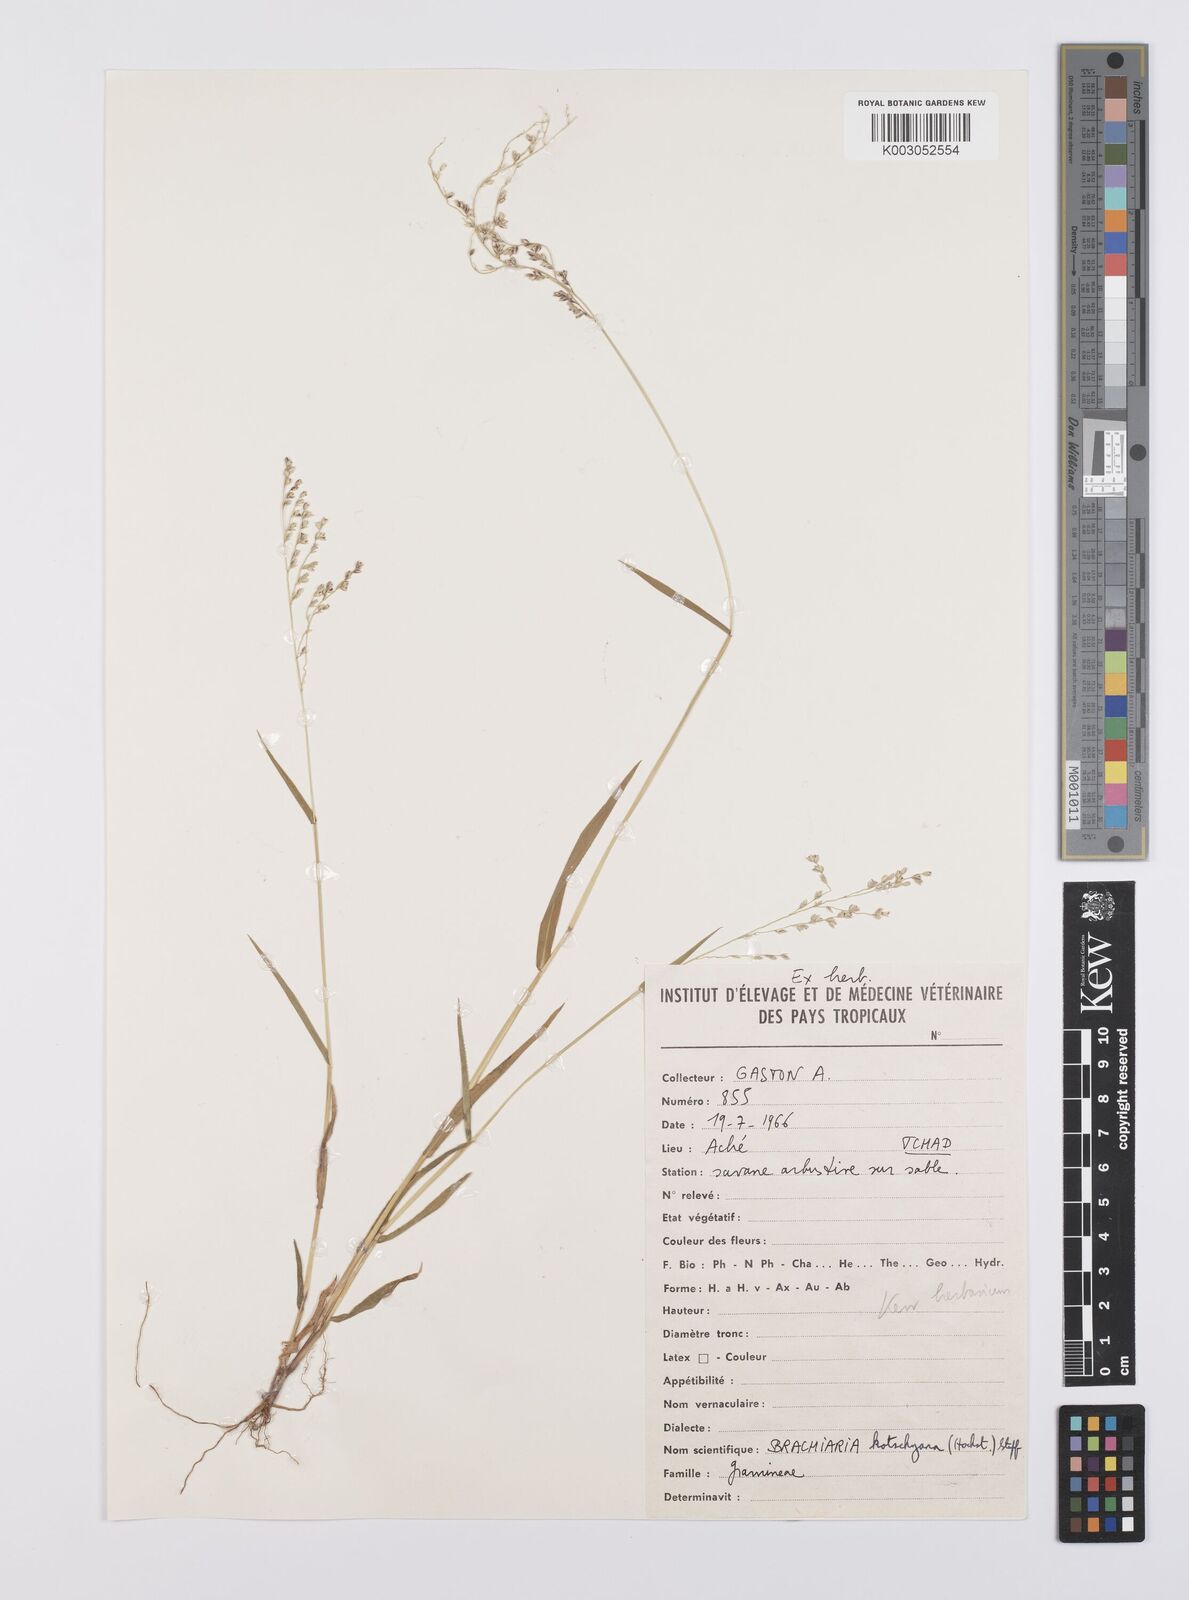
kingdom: Plantae
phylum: Tracheophyta
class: Liliopsida
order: Poales
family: Poaceae
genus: Urochloa
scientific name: Urochloa comata
